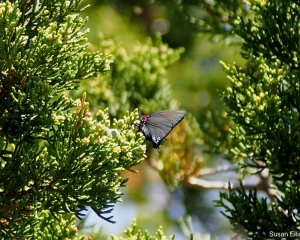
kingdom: Animalia
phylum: Arthropoda
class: Insecta
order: Lepidoptera
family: Lycaenidae
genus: Atlides
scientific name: Atlides halesus
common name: Great Purple Hairstreak
